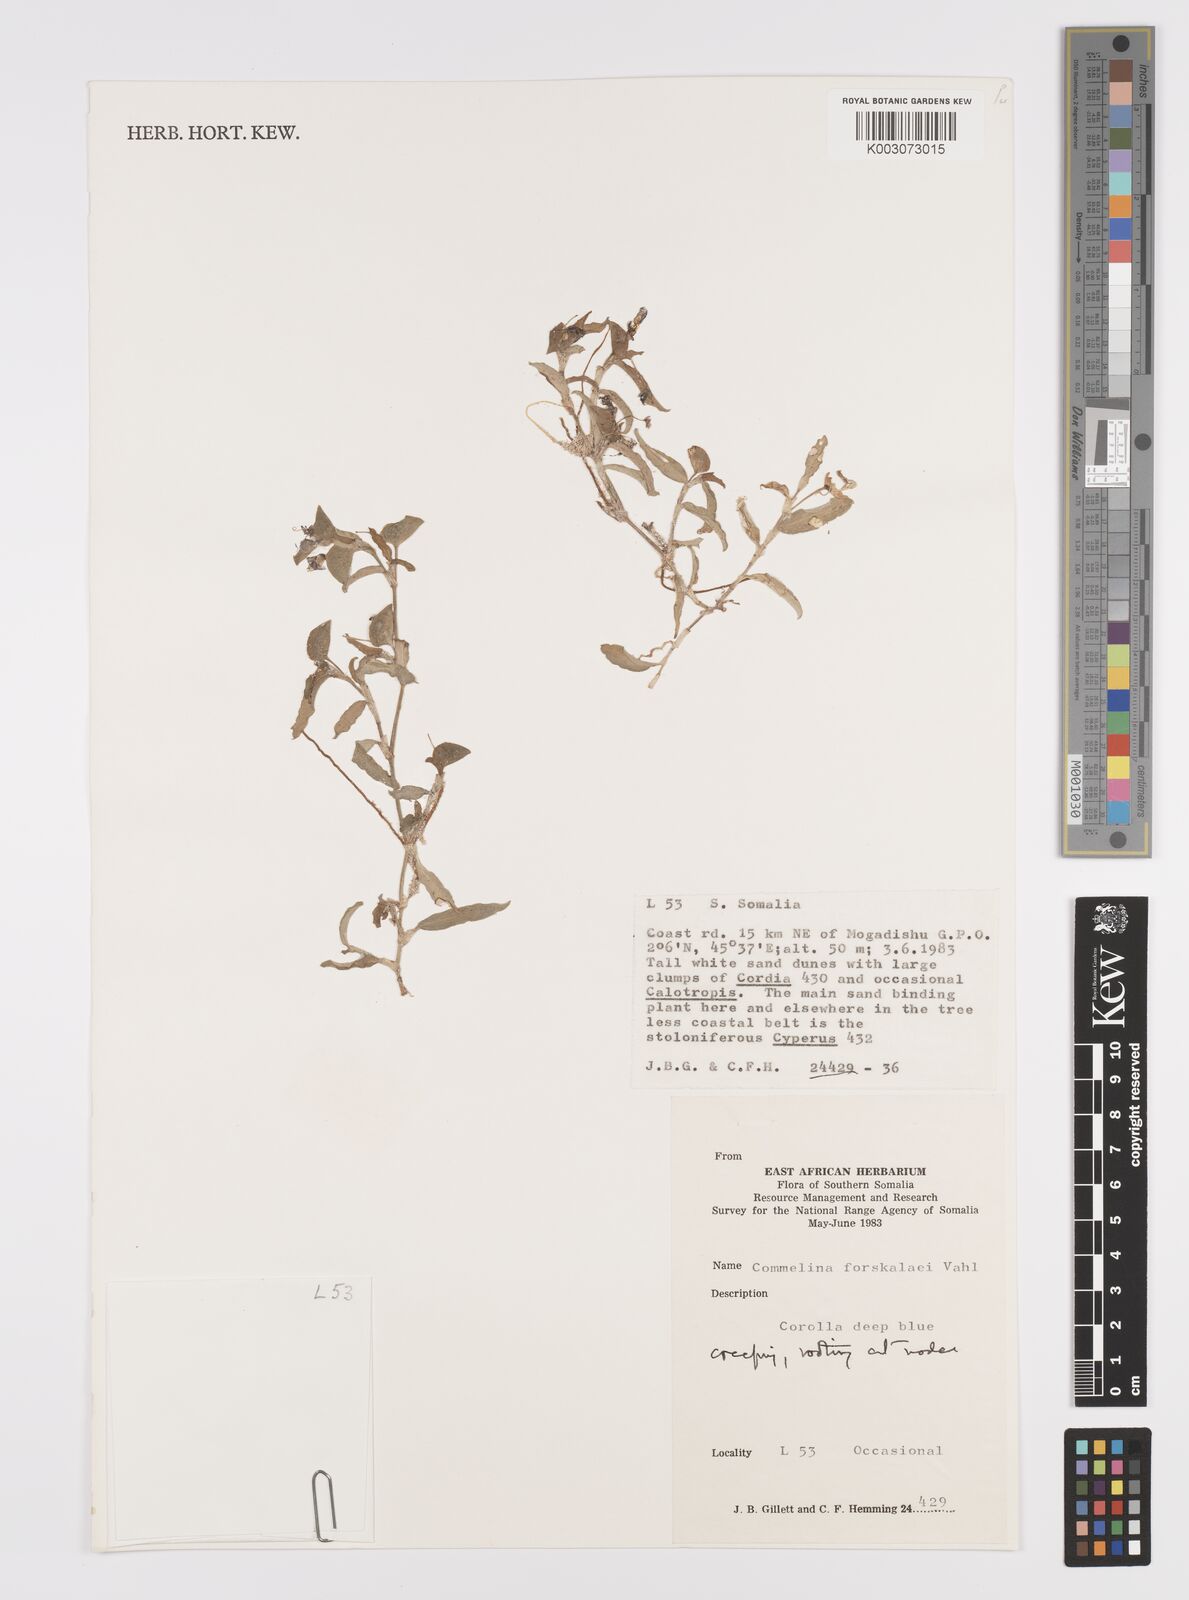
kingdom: Plantae
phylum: Tracheophyta
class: Liliopsida
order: Commelinales
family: Commelinaceae
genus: Commelina
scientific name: Commelina forskaolii
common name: Rat's ear
